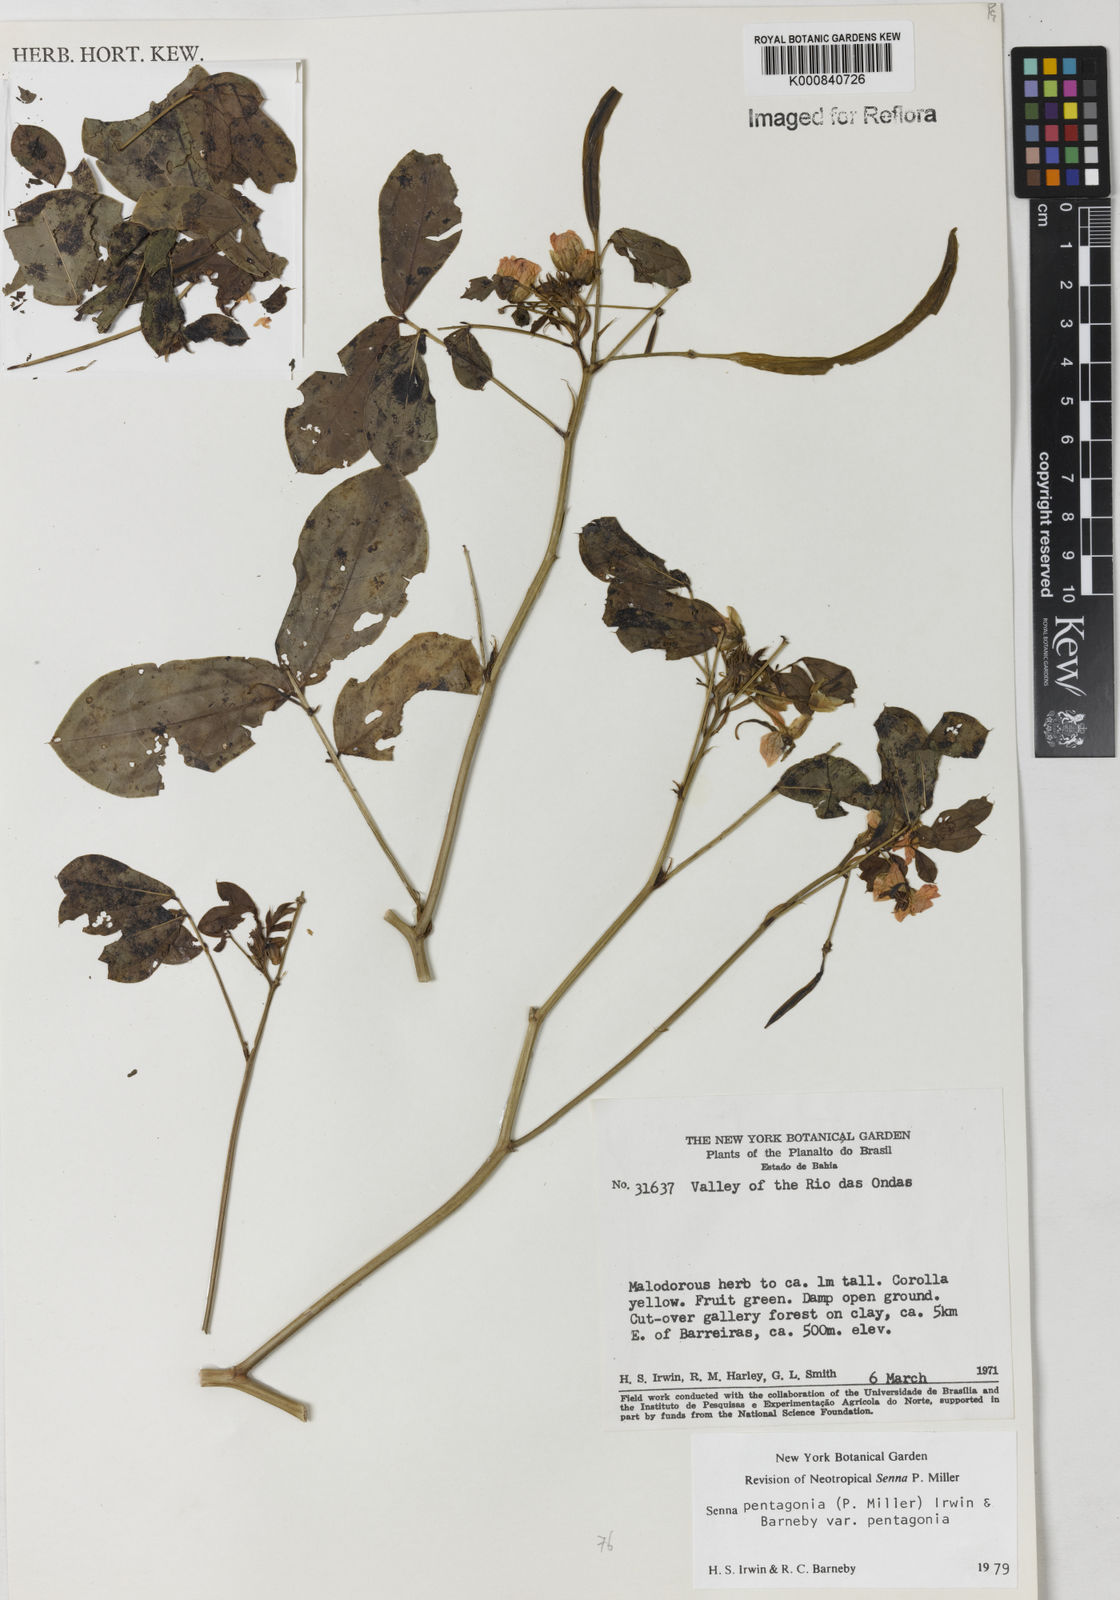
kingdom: Plantae
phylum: Tracheophyta
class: Magnoliopsida
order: Fabales
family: Fabaceae
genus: Senna
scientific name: Senna pentagonia
